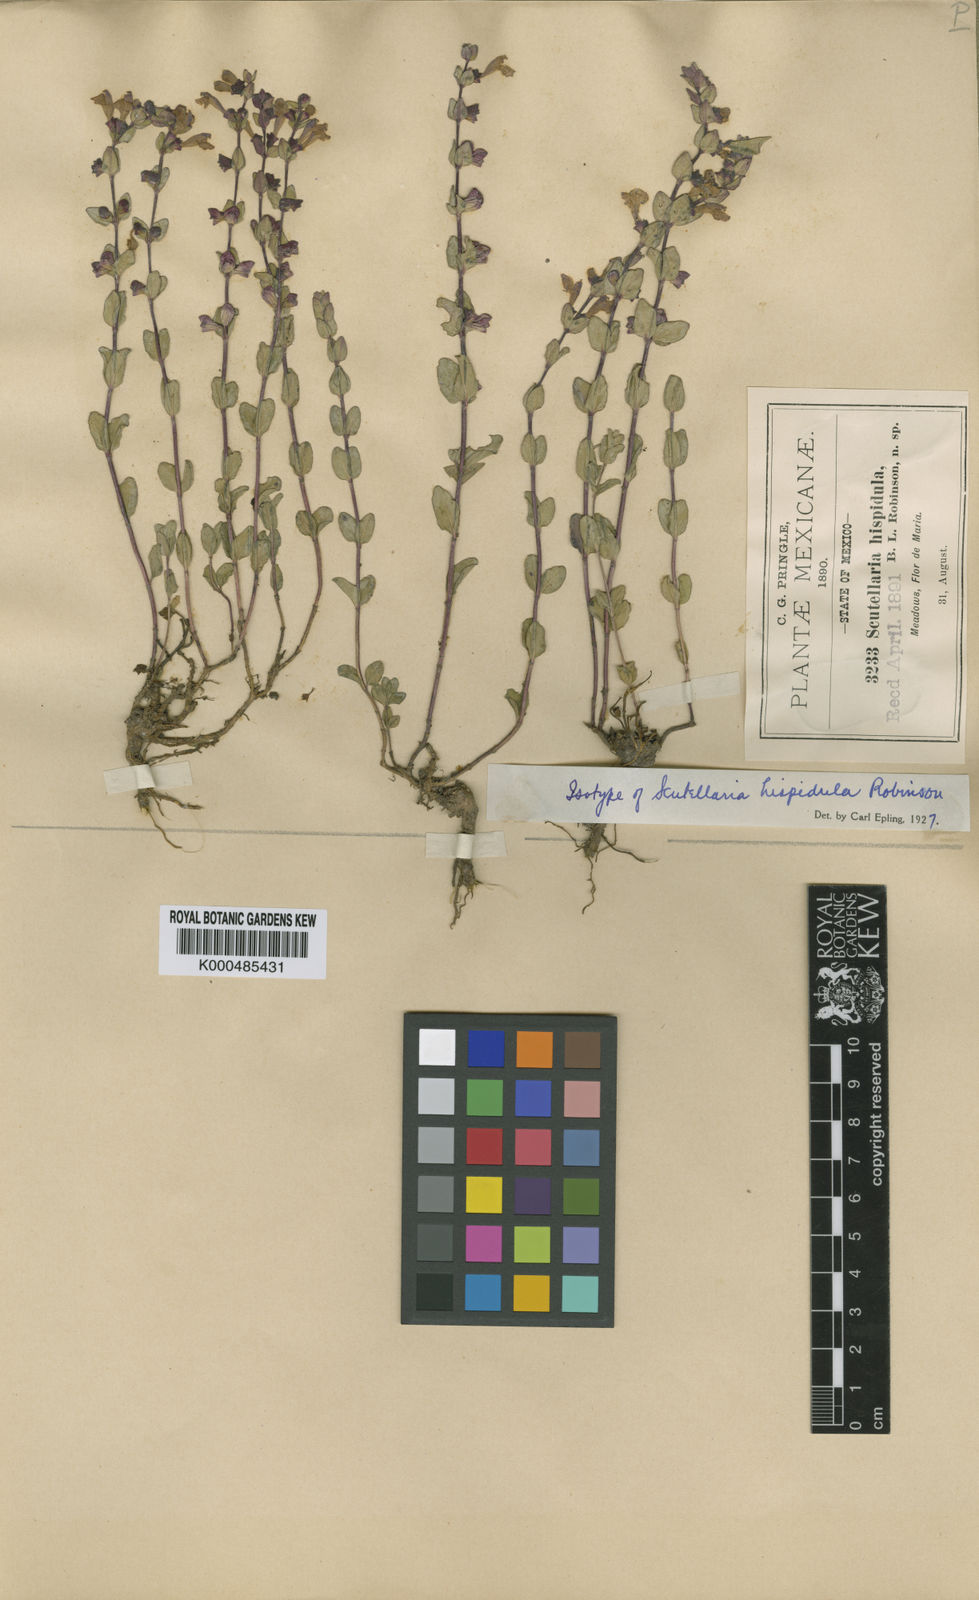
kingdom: Plantae
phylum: Tracheophyta
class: Magnoliopsida
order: Lamiales
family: Lamiaceae
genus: Scutellaria
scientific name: Scutellaria hispidula
